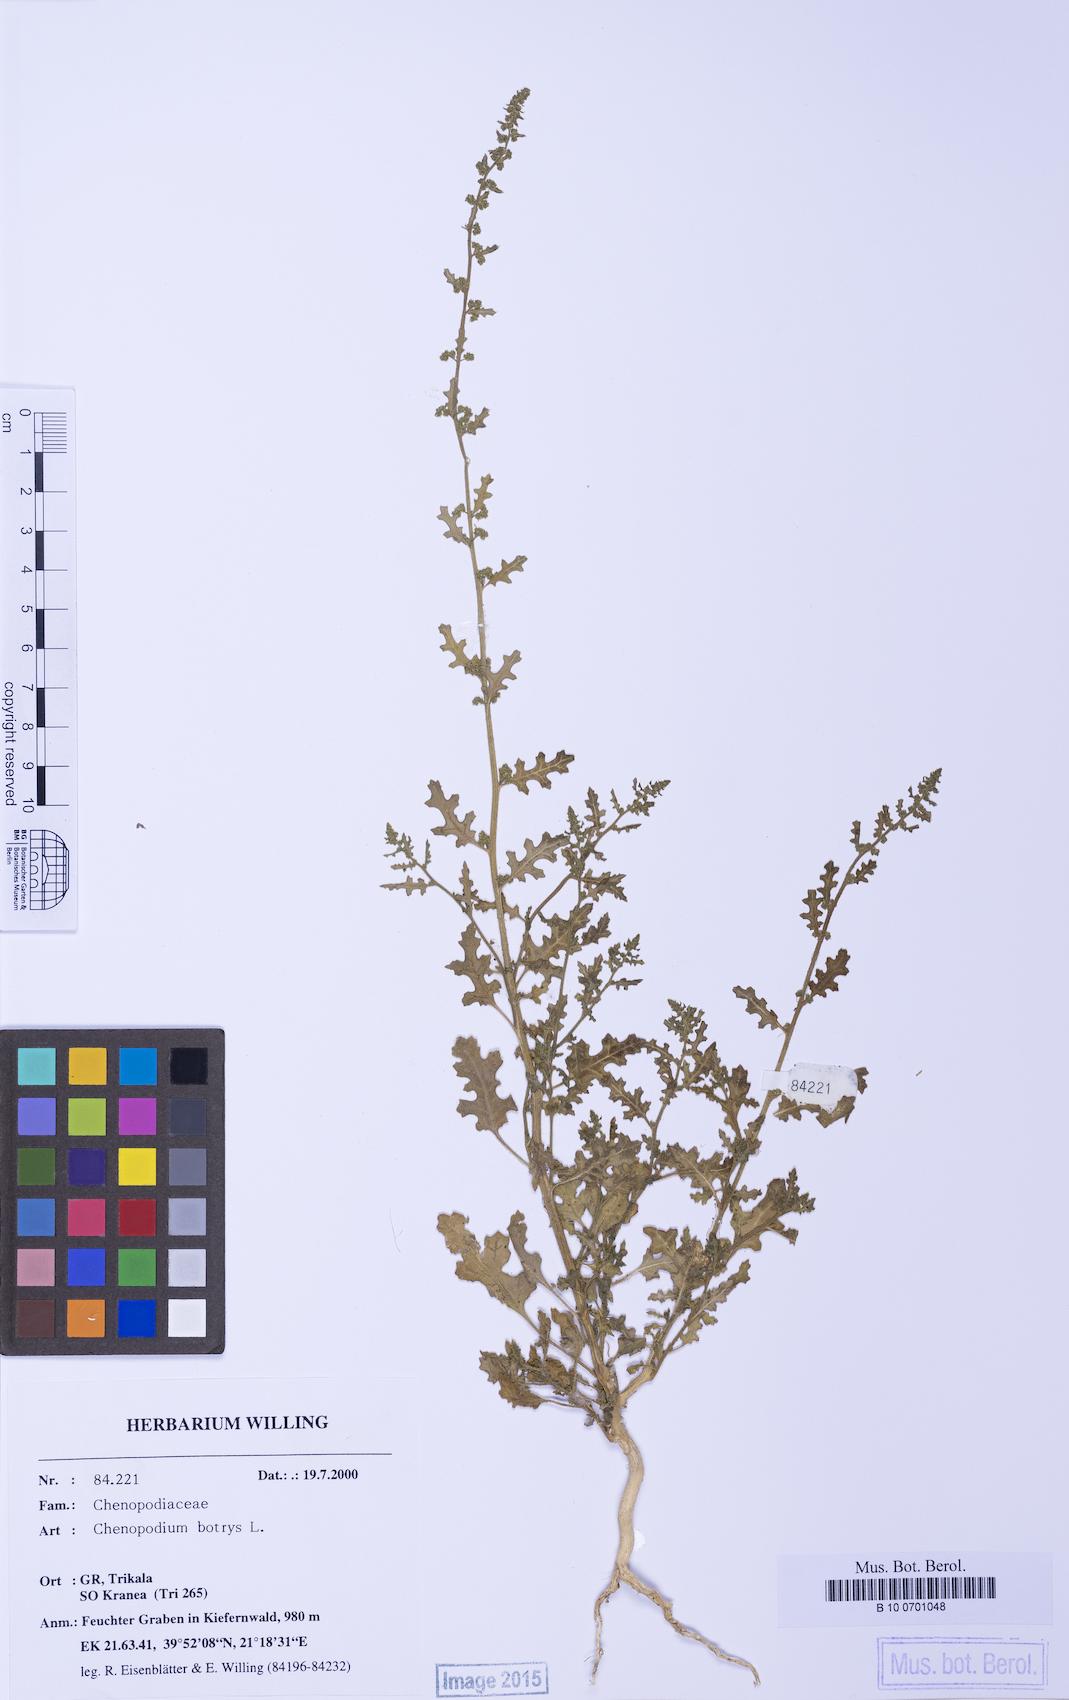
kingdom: Plantae
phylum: Tracheophyta
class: Magnoliopsida
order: Caryophyllales
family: Amaranthaceae
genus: Dysphania
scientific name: Dysphania botrys
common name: Feather-geranium
